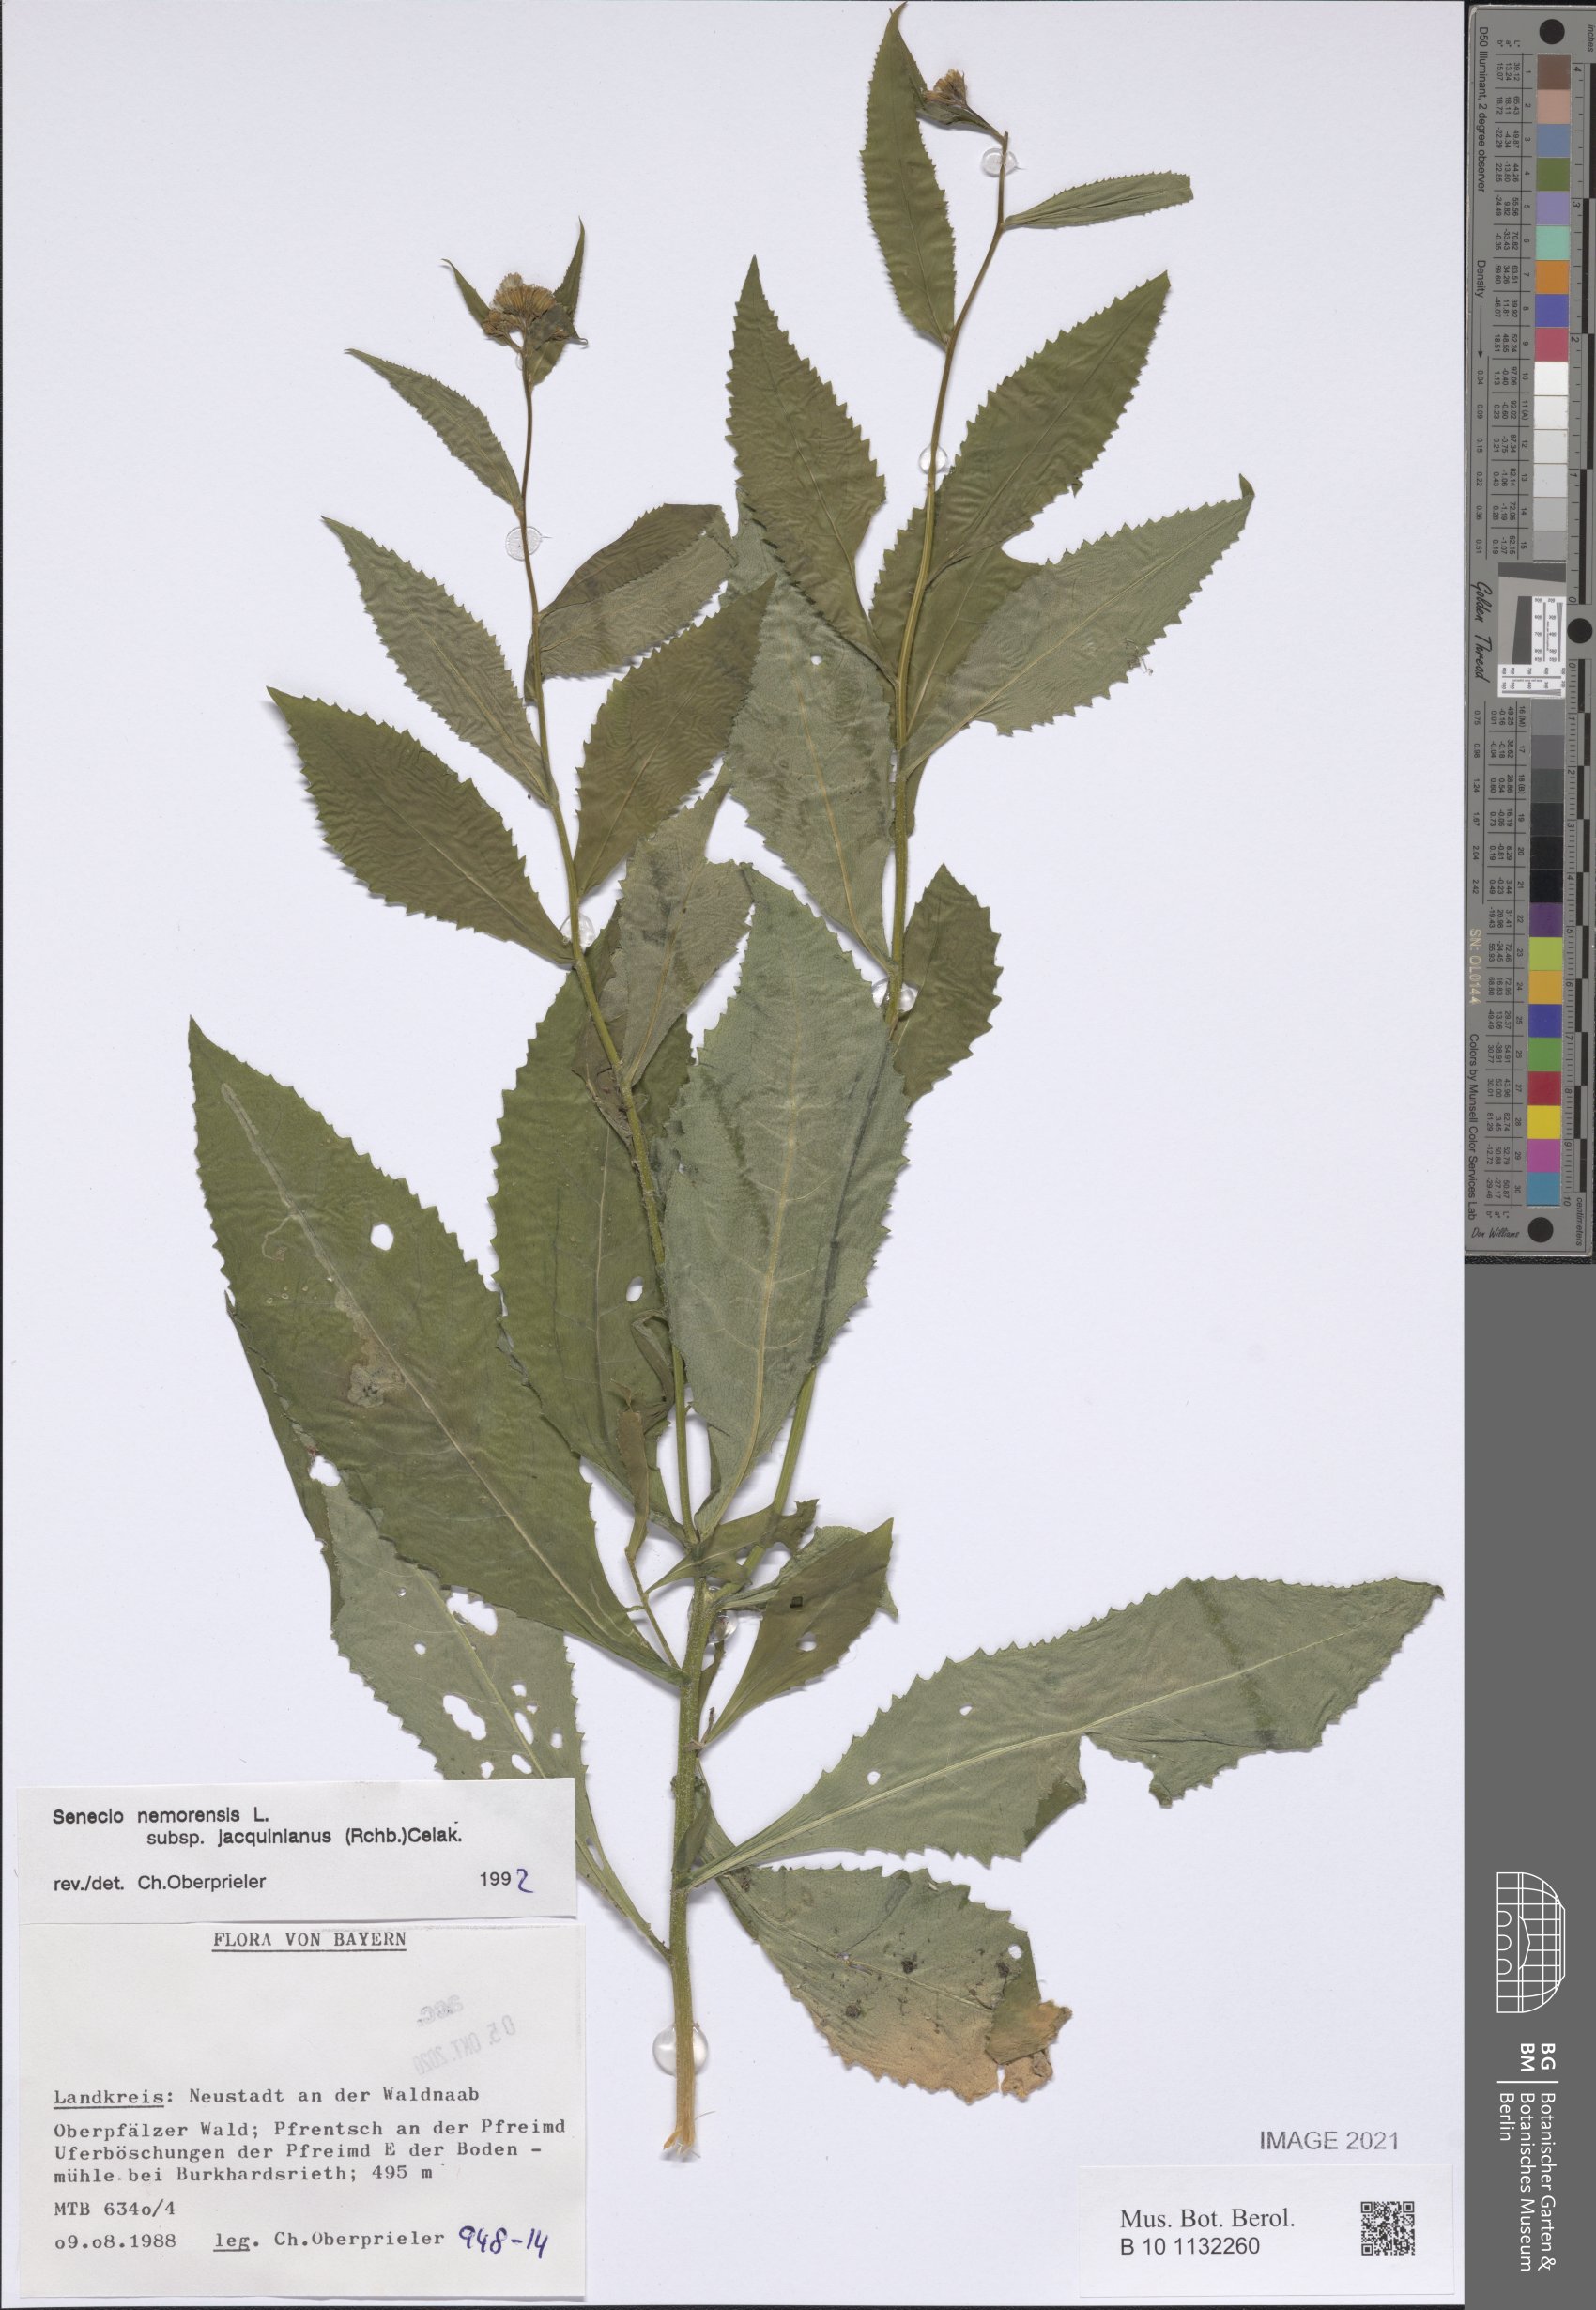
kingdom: Plantae
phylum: Tracheophyta
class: Magnoliopsida
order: Asterales
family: Asteraceae
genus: Senecio
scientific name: Senecio germanicus
